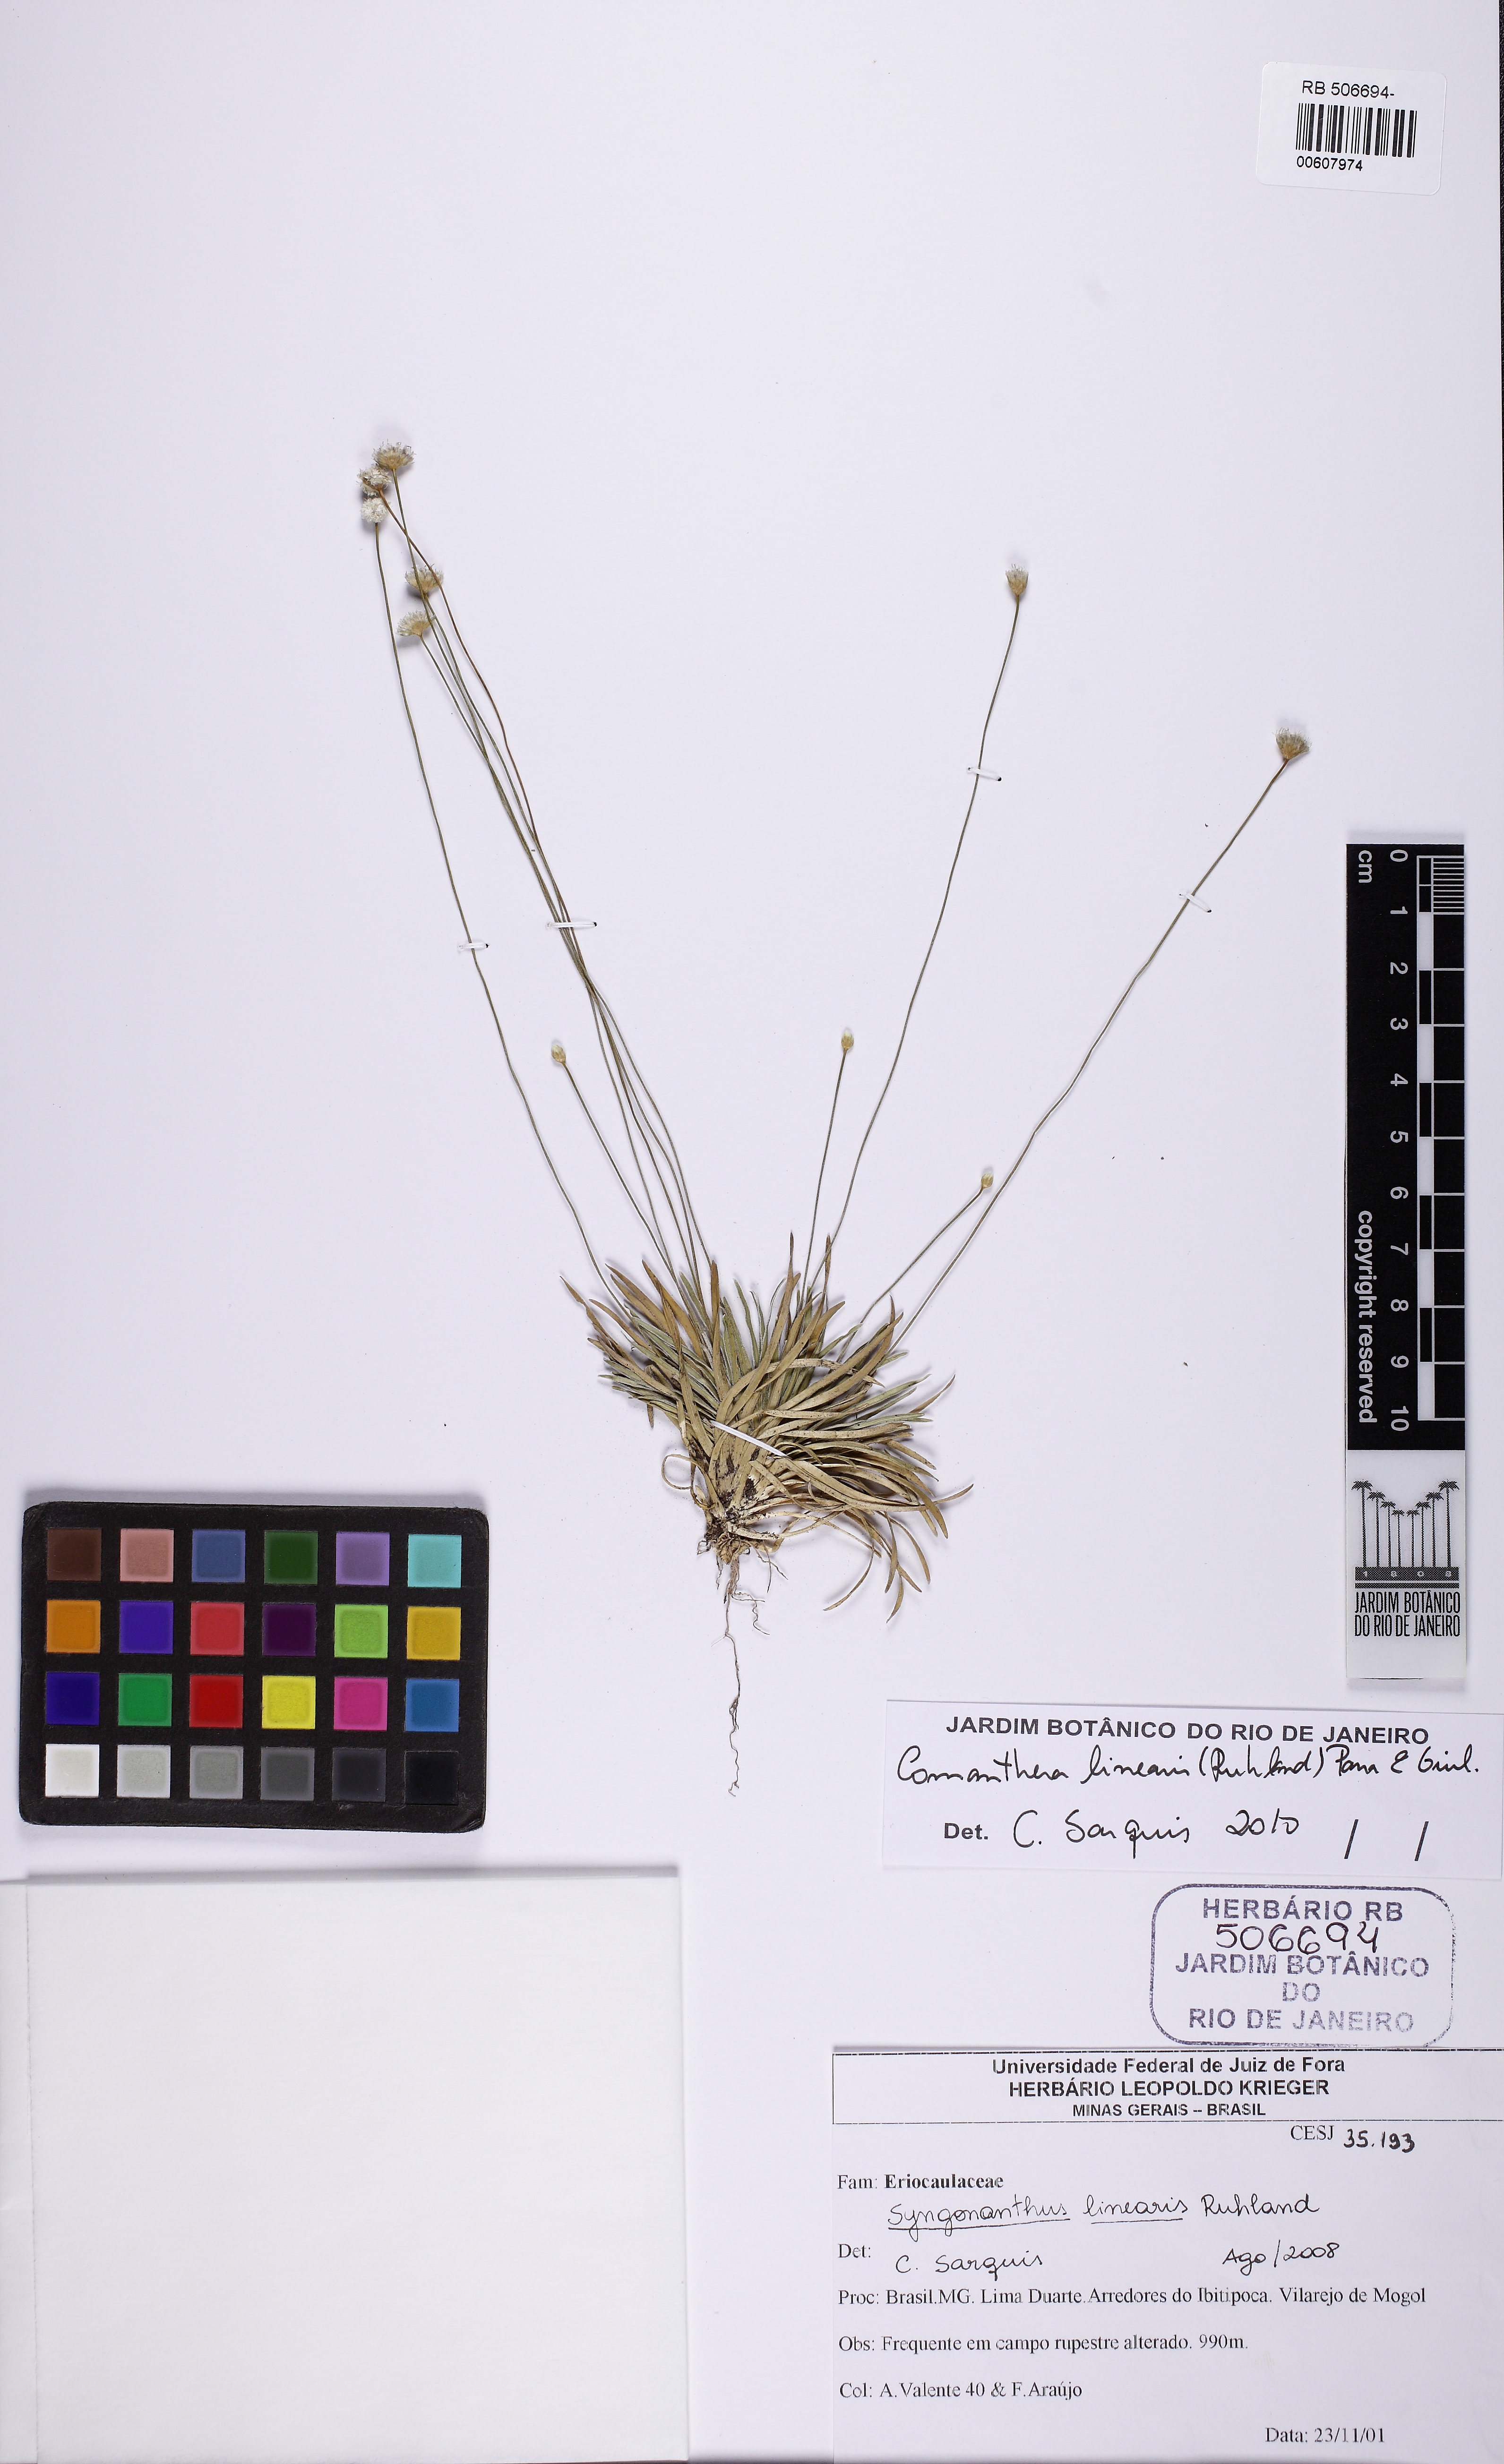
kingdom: Plantae
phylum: Tracheophyta
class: Liliopsida
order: Poales
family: Eriocaulaceae
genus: Comanthera
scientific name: Comanthera caespitosa
